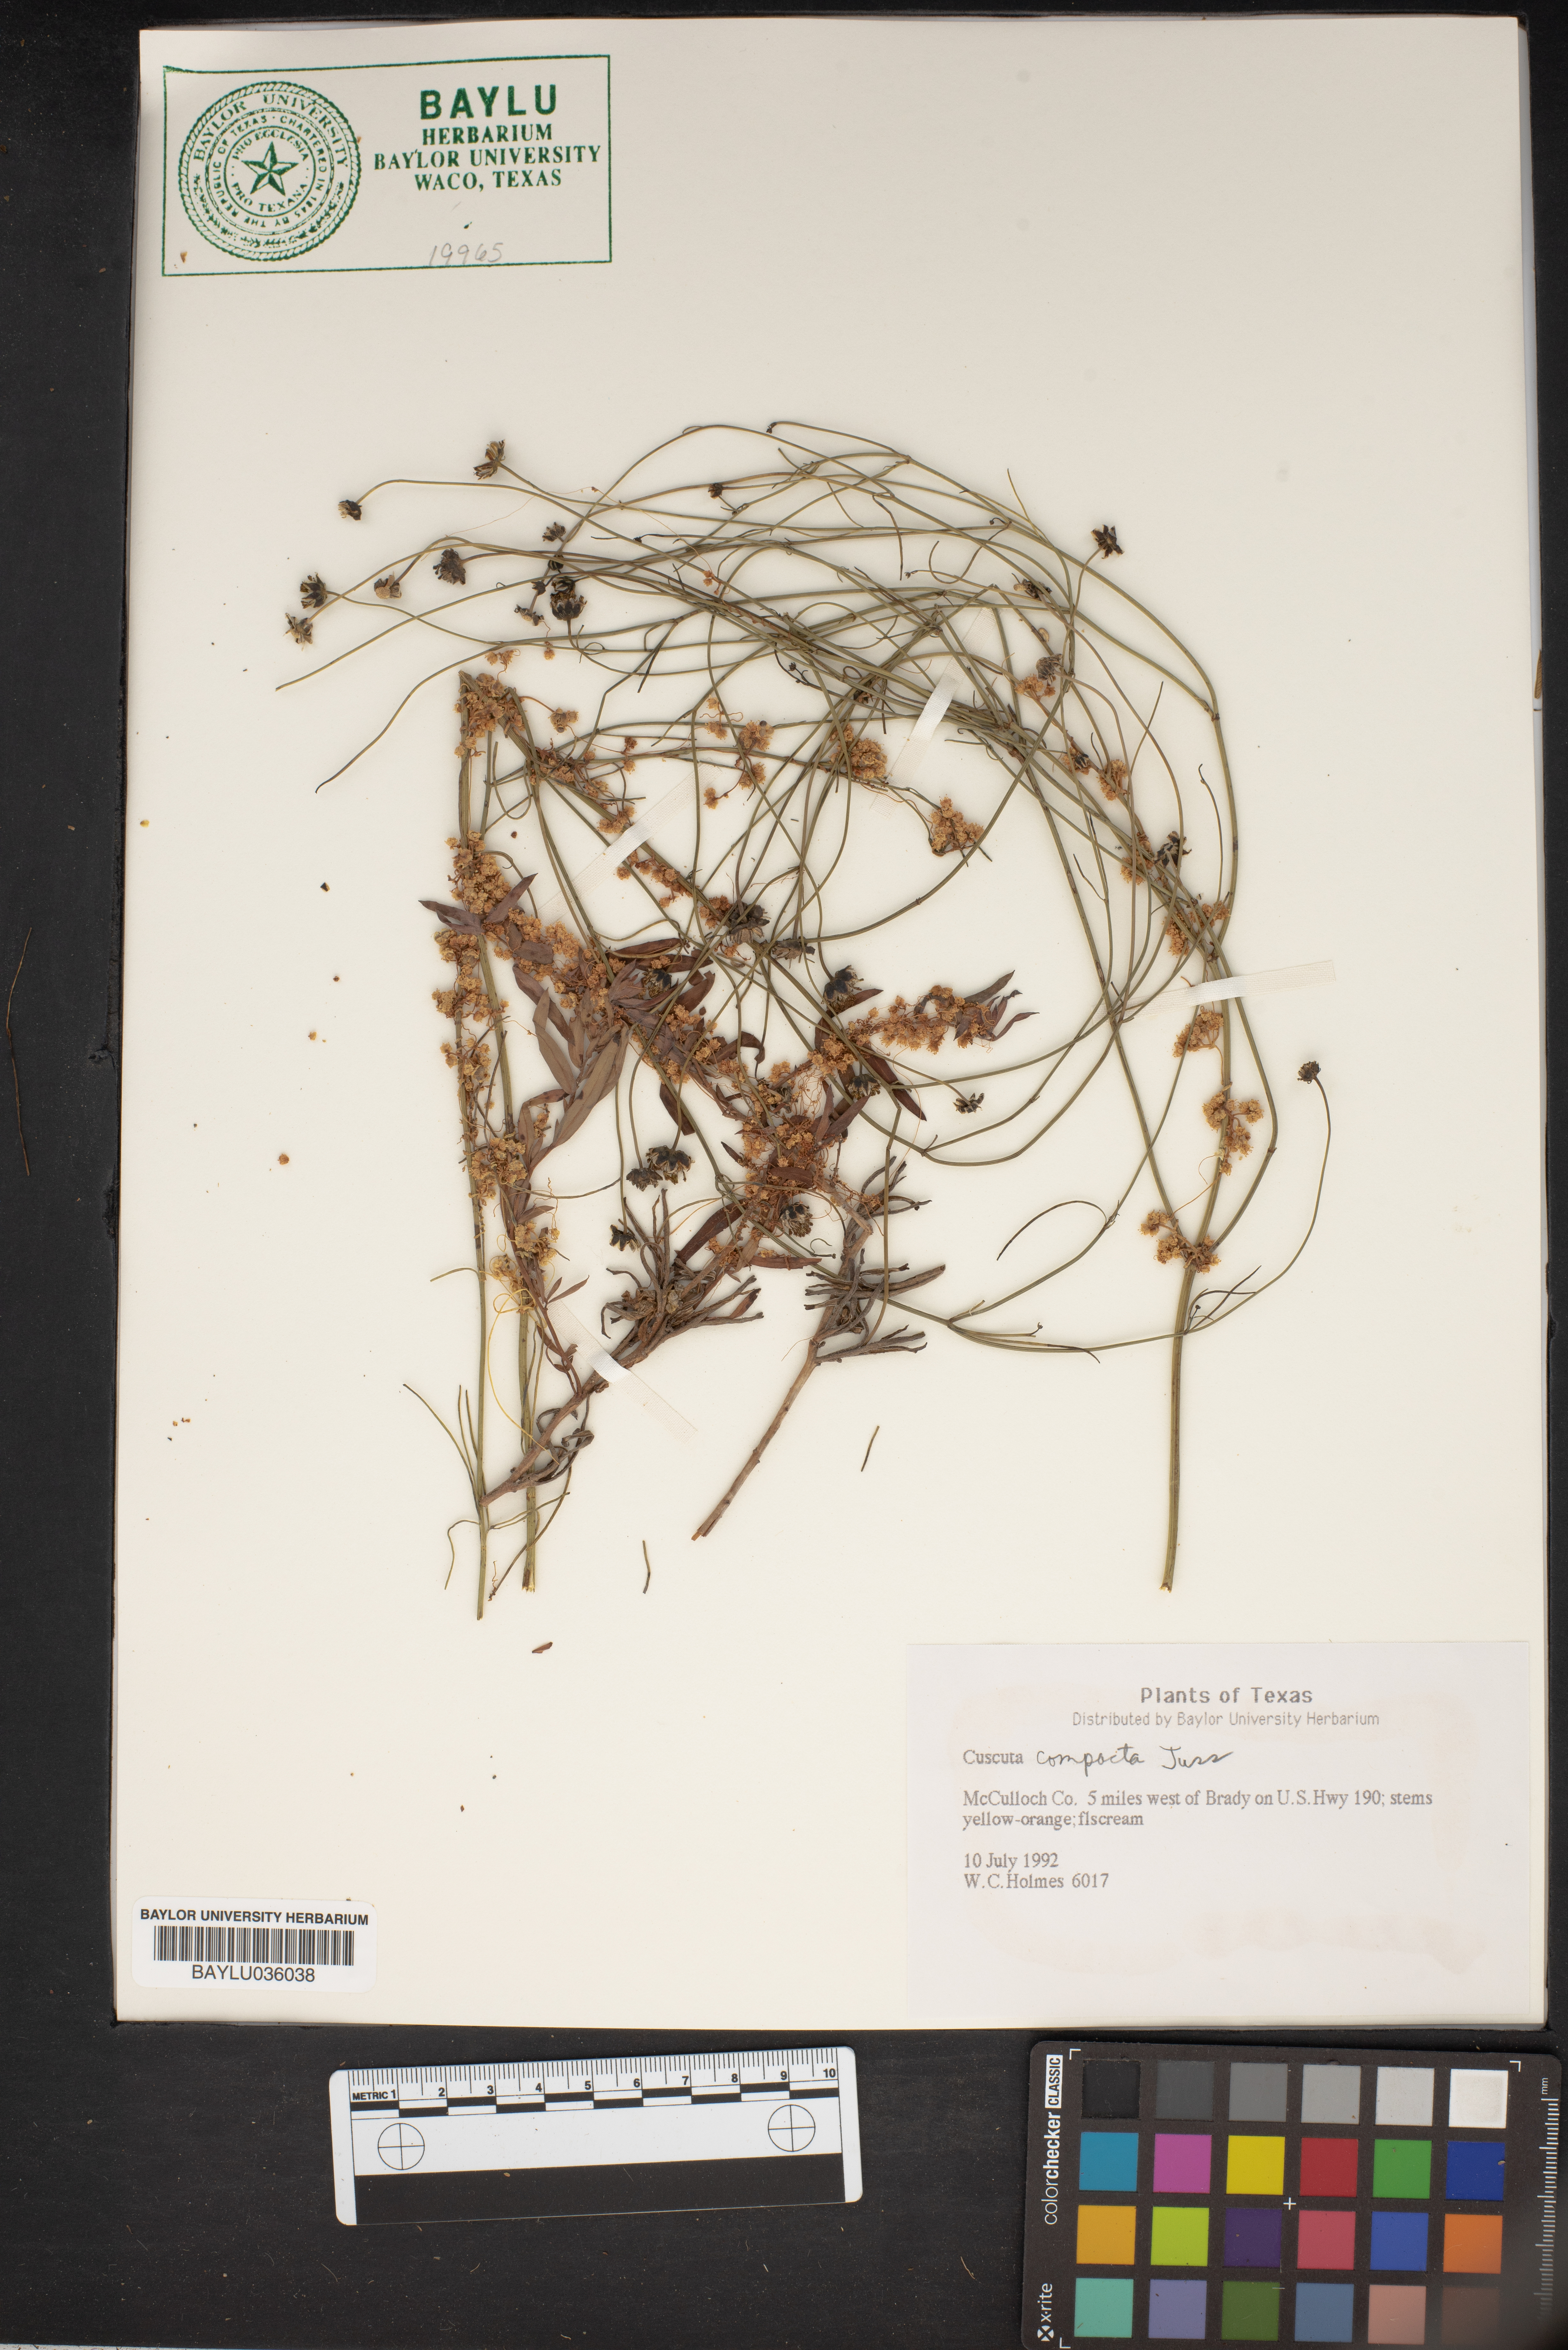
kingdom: Plantae
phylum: Tracheophyta
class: Magnoliopsida
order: Solanales
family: Convolvulaceae
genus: Cuscuta
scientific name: Cuscuta compacta
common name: Compact dodder
